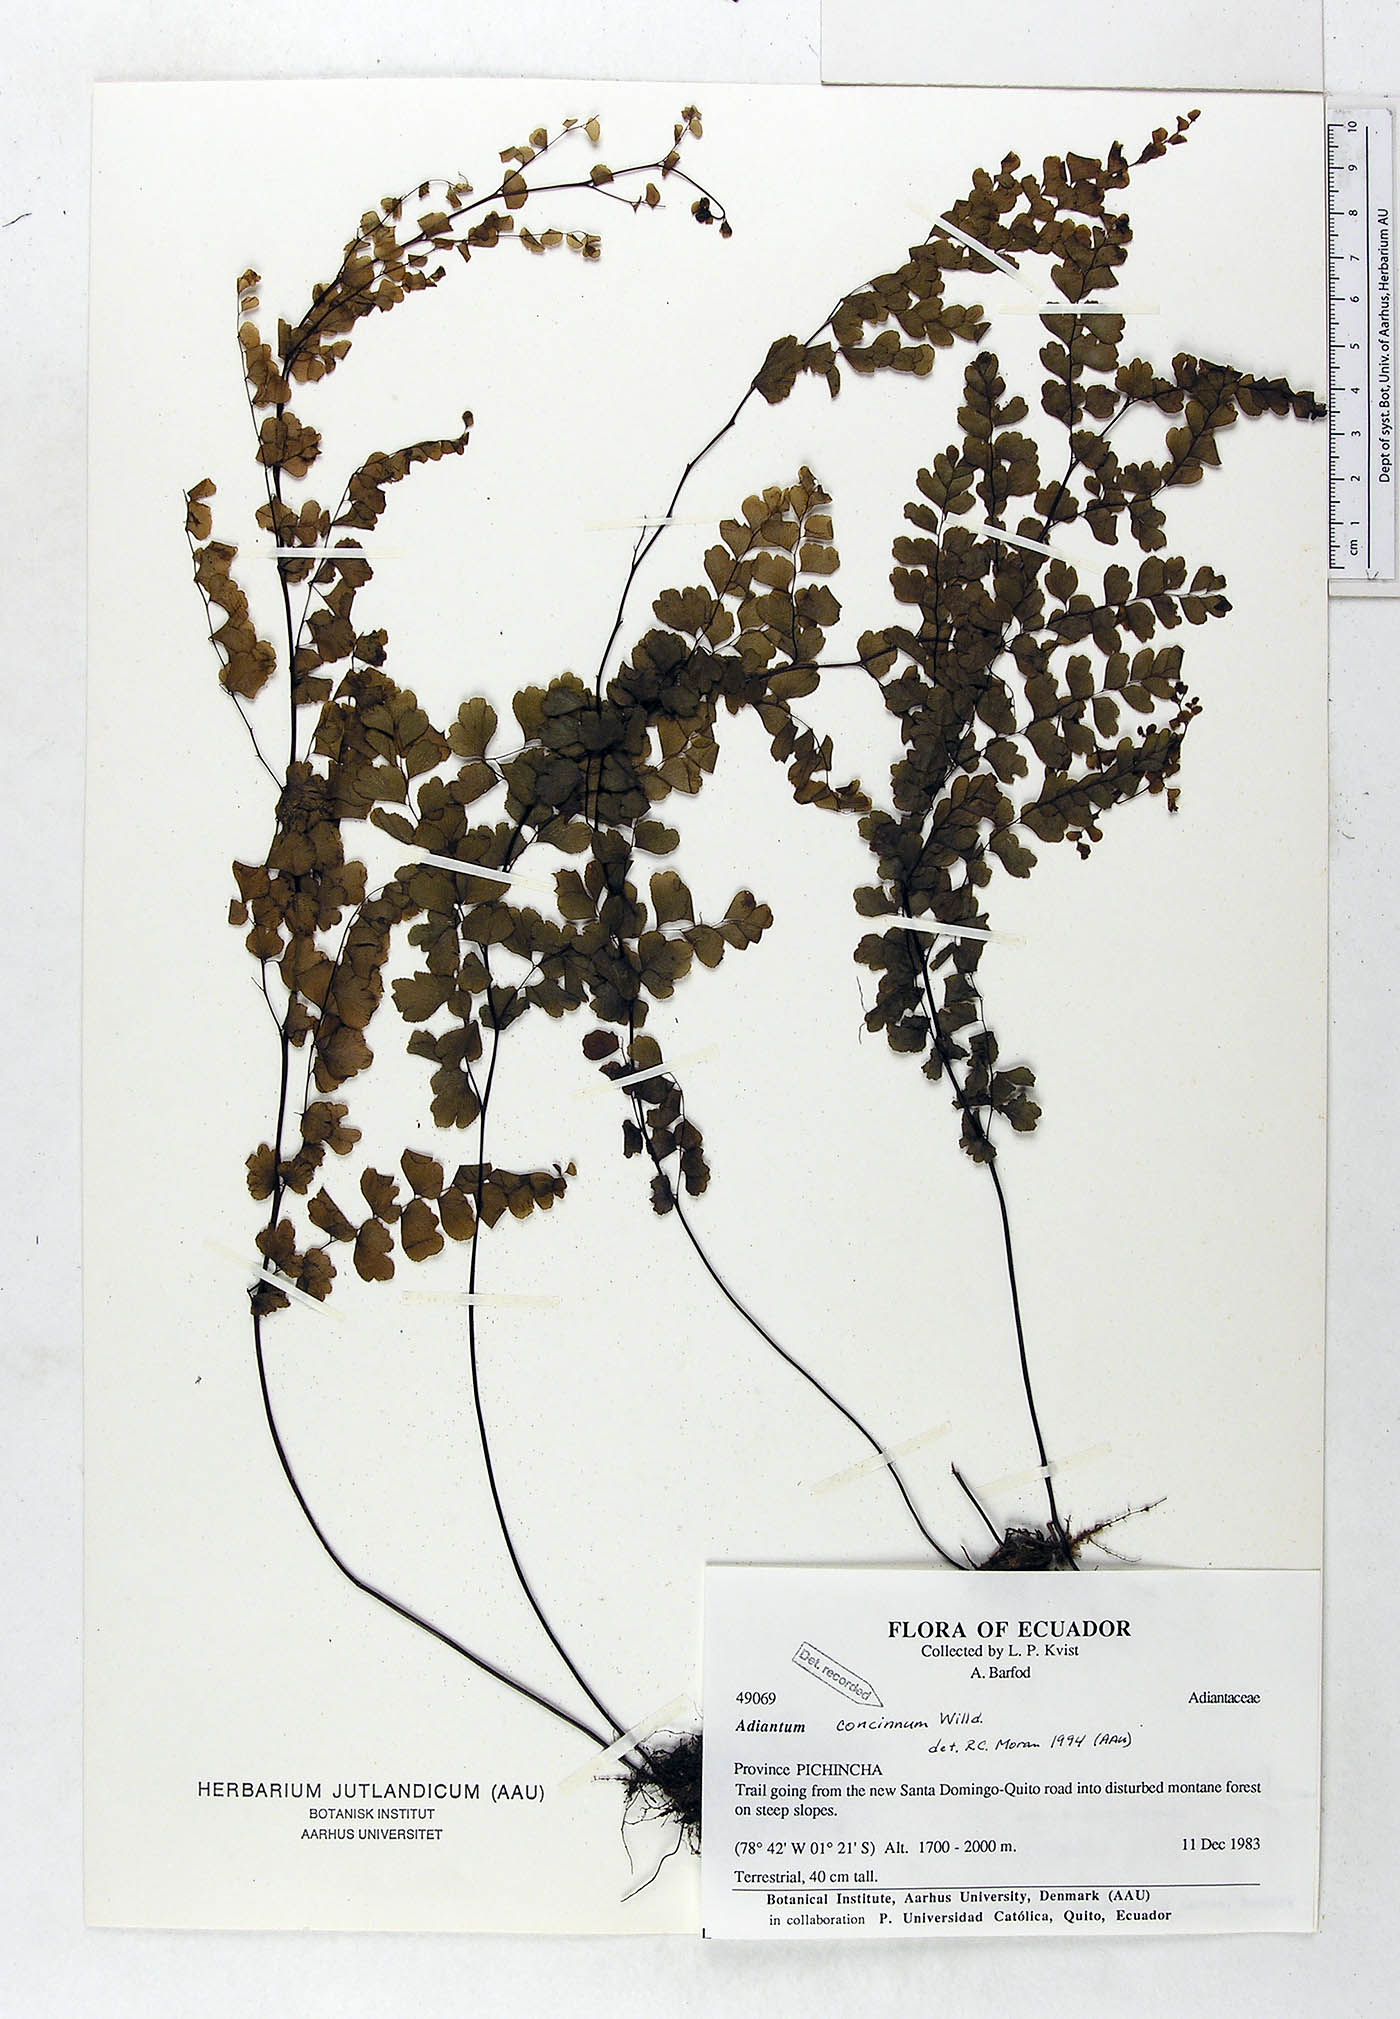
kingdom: Plantae
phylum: Tracheophyta
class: Polypodiopsida
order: Polypodiales
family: Pteridaceae
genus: Adiantum
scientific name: Adiantum concinnum
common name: Brittle maidenhair fern
